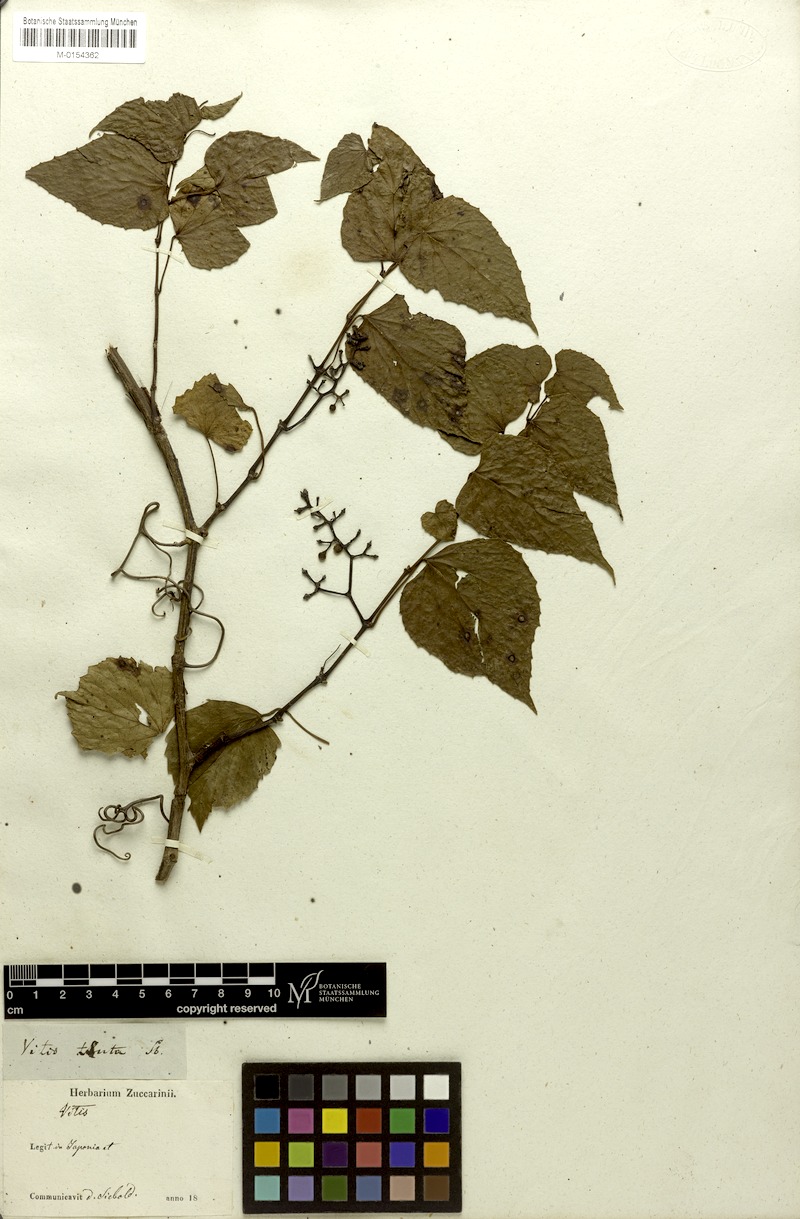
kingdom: Plantae
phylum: Tracheophyta
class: Magnoliopsida
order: Vitales
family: Vitaceae
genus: Vitis
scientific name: Vitis flexuosa
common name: Creeping grape
